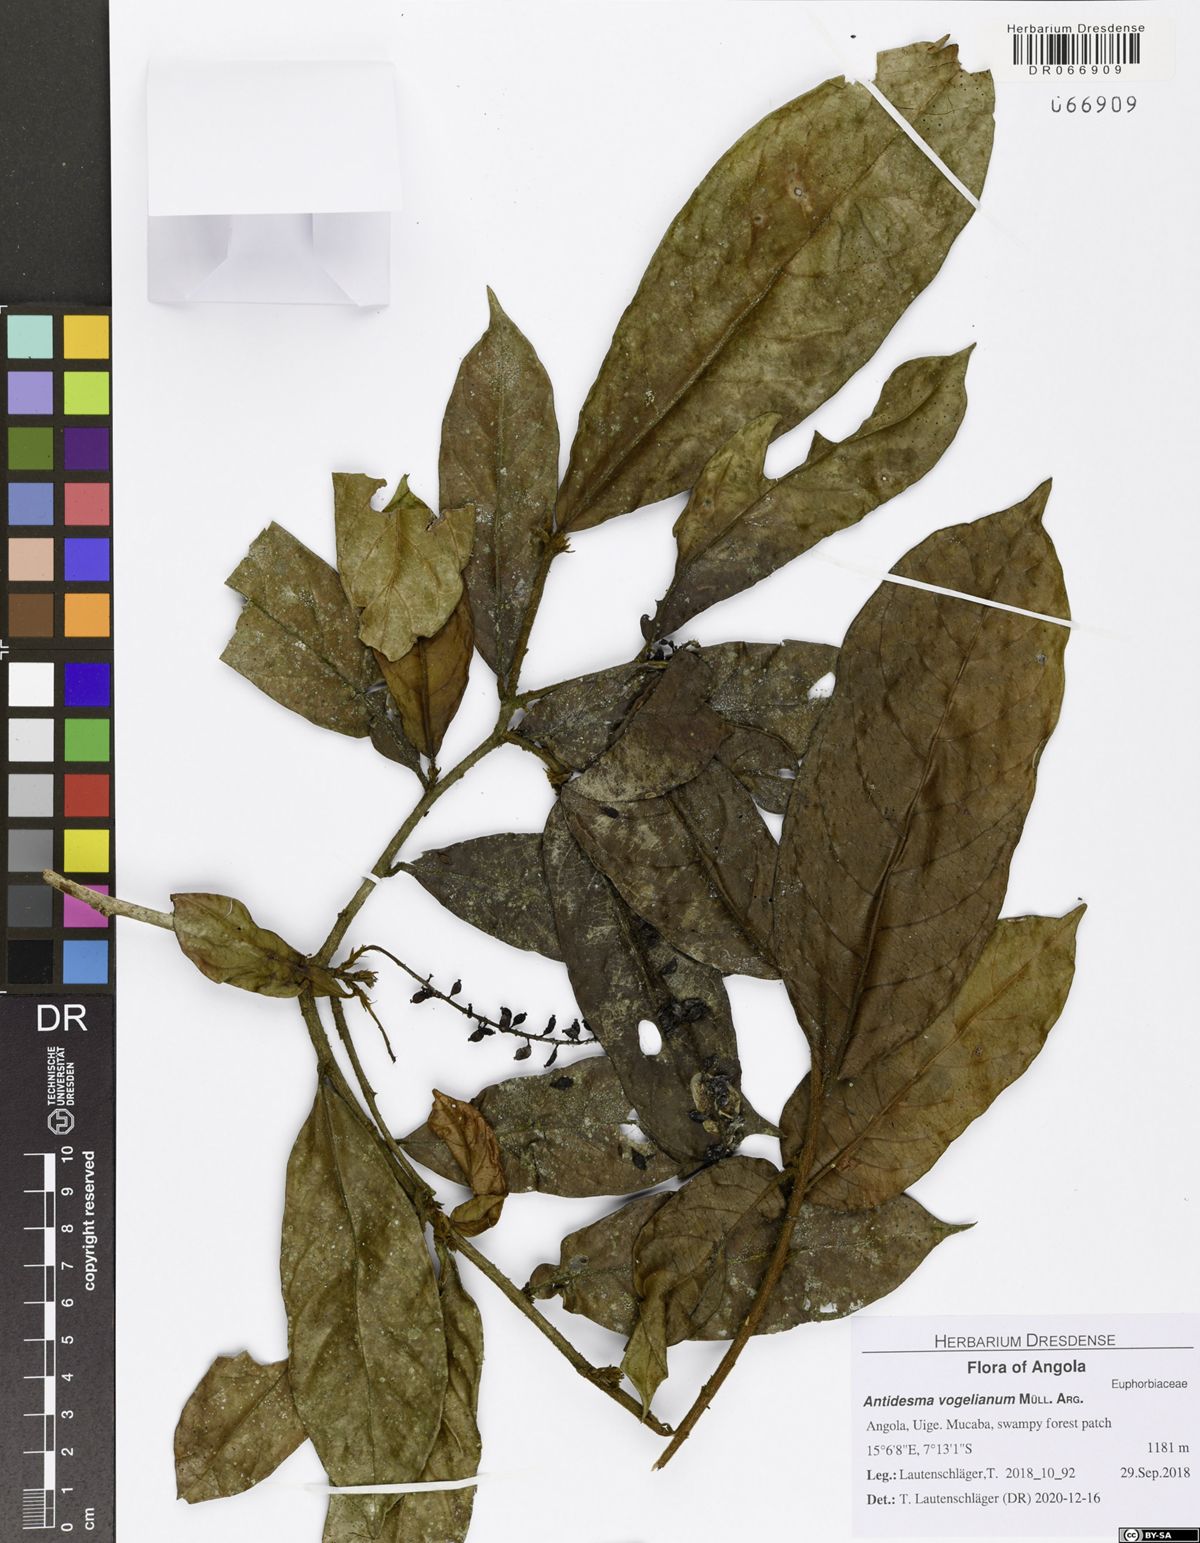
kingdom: Plantae
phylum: Tracheophyta
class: Magnoliopsida
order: Malpighiales
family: Phyllanthaceae
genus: Antidesma
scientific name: Antidesma vogelianum
